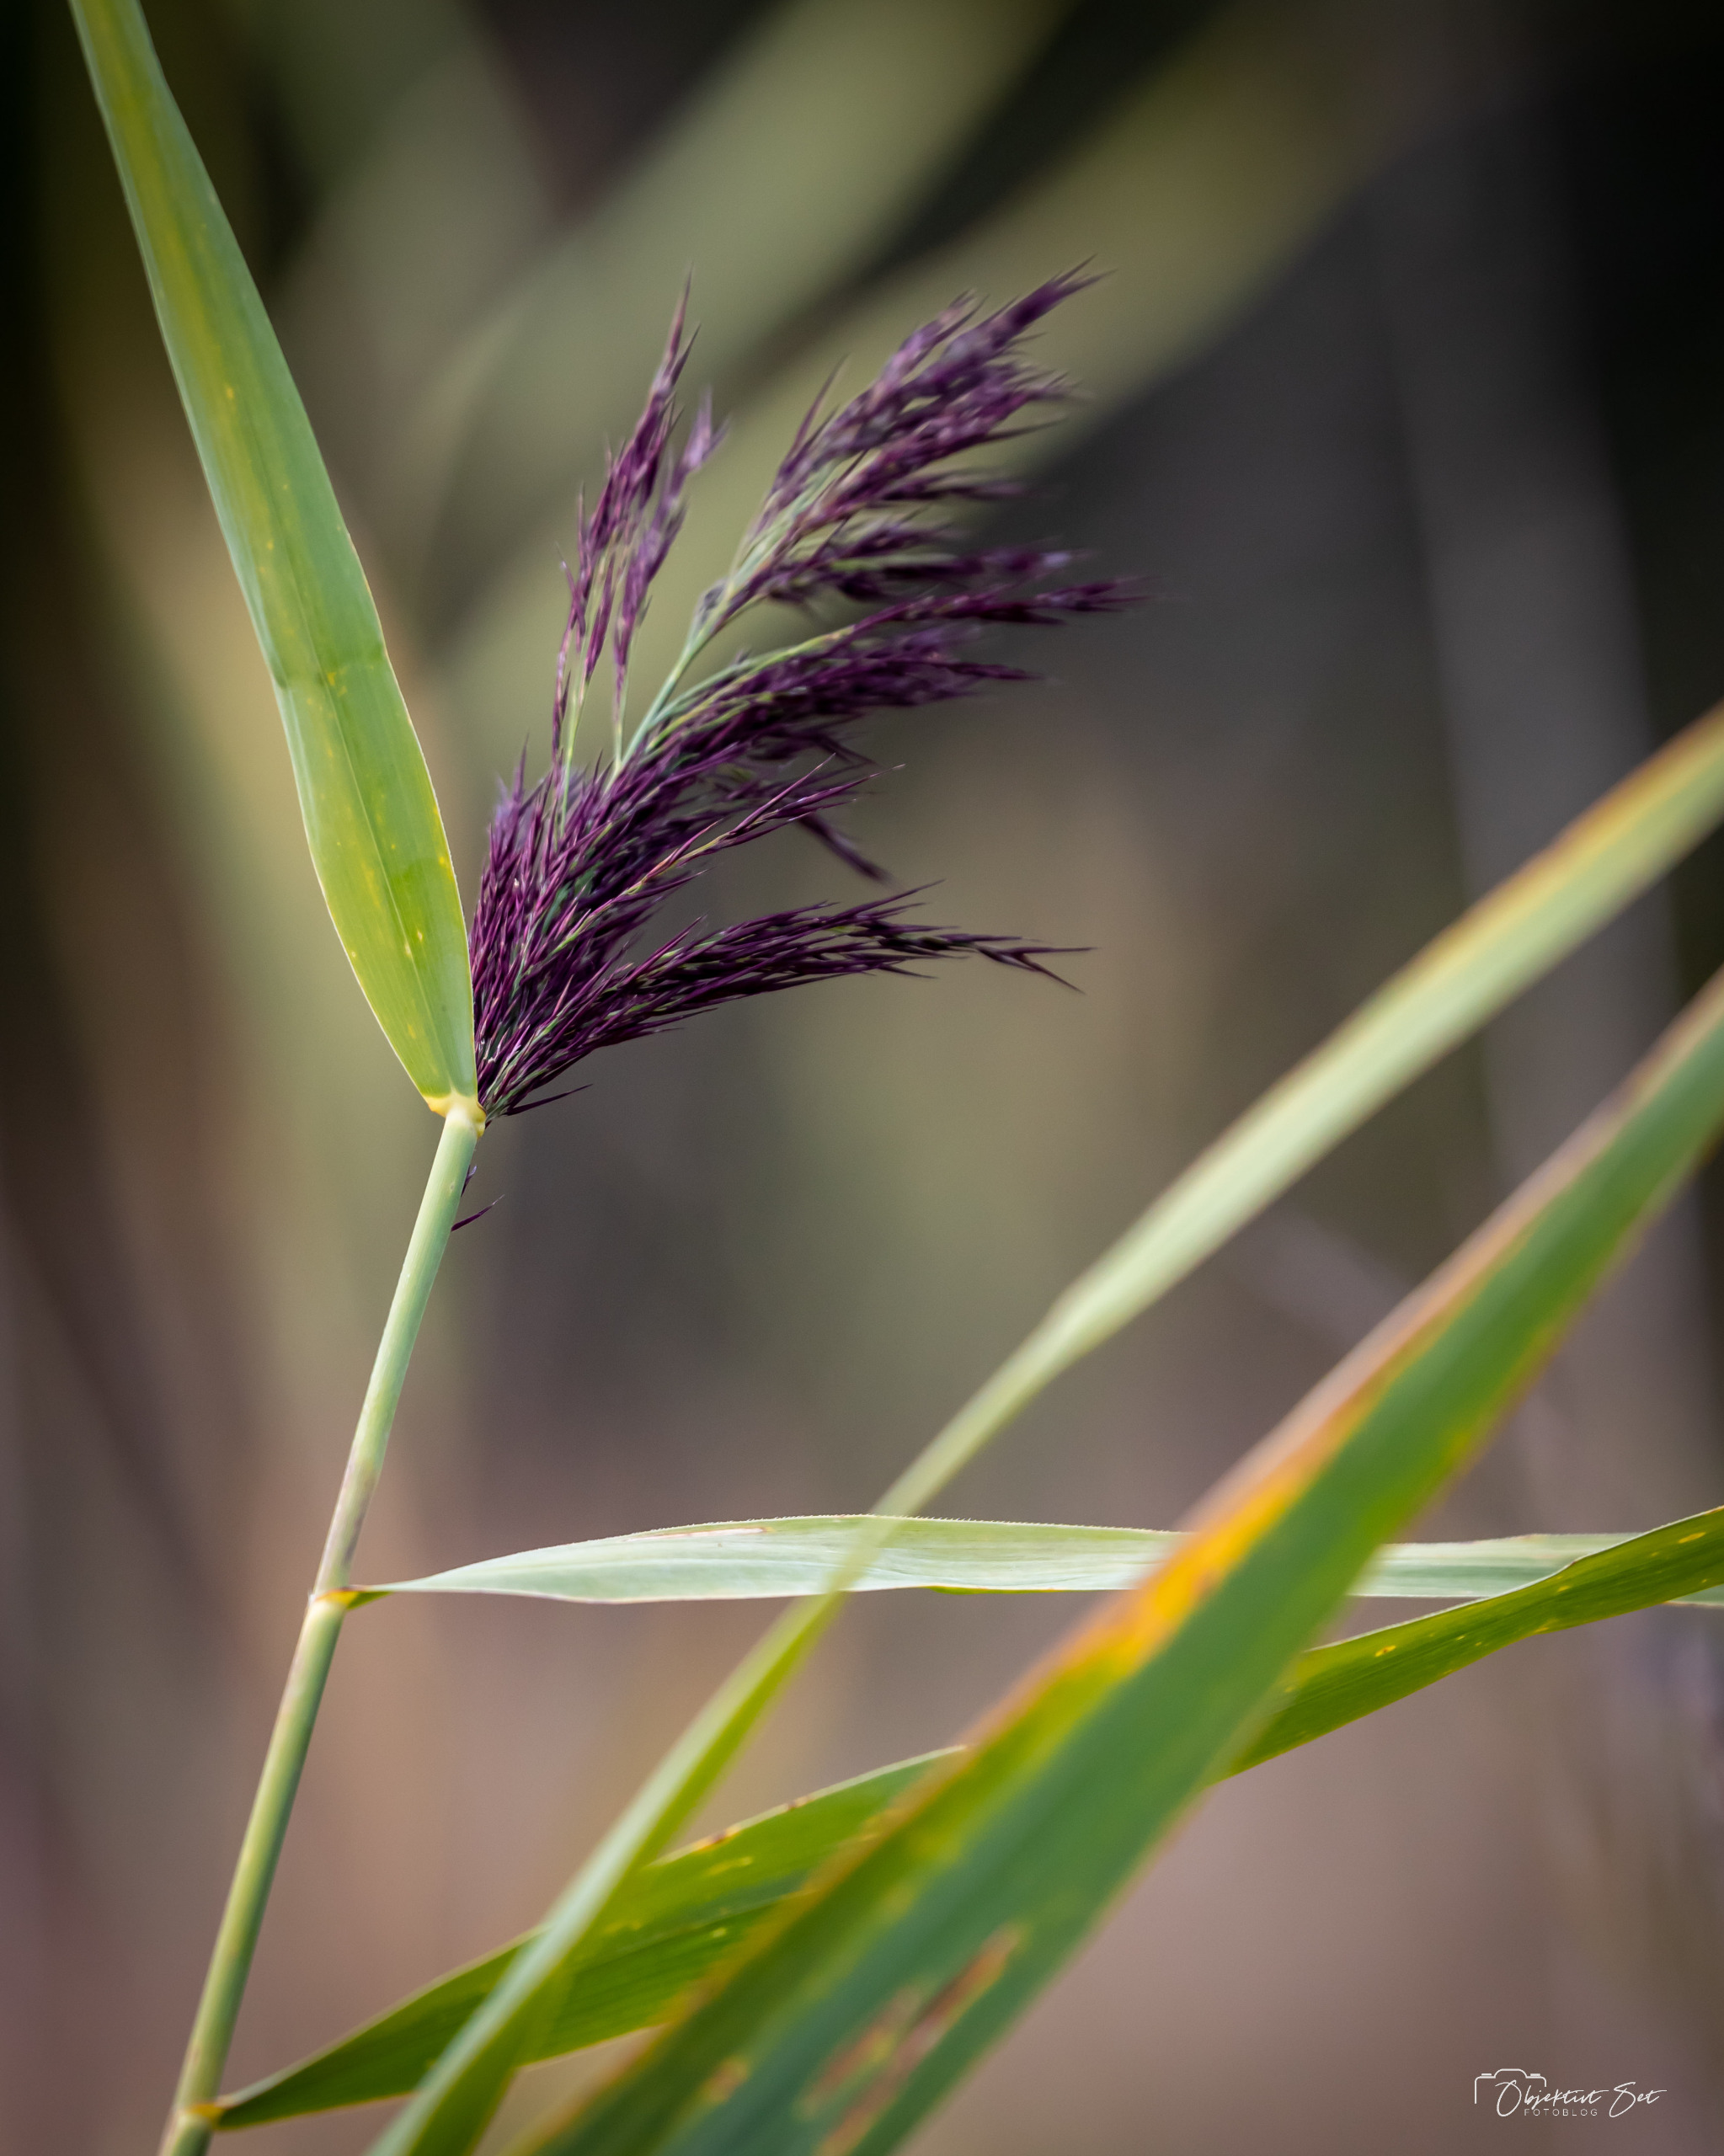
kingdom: Plantae
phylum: Tracheophyta
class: Liliopsida
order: Poales
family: Poaceae
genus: Phragmites
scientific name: Phragmites australis
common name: Tagrør
